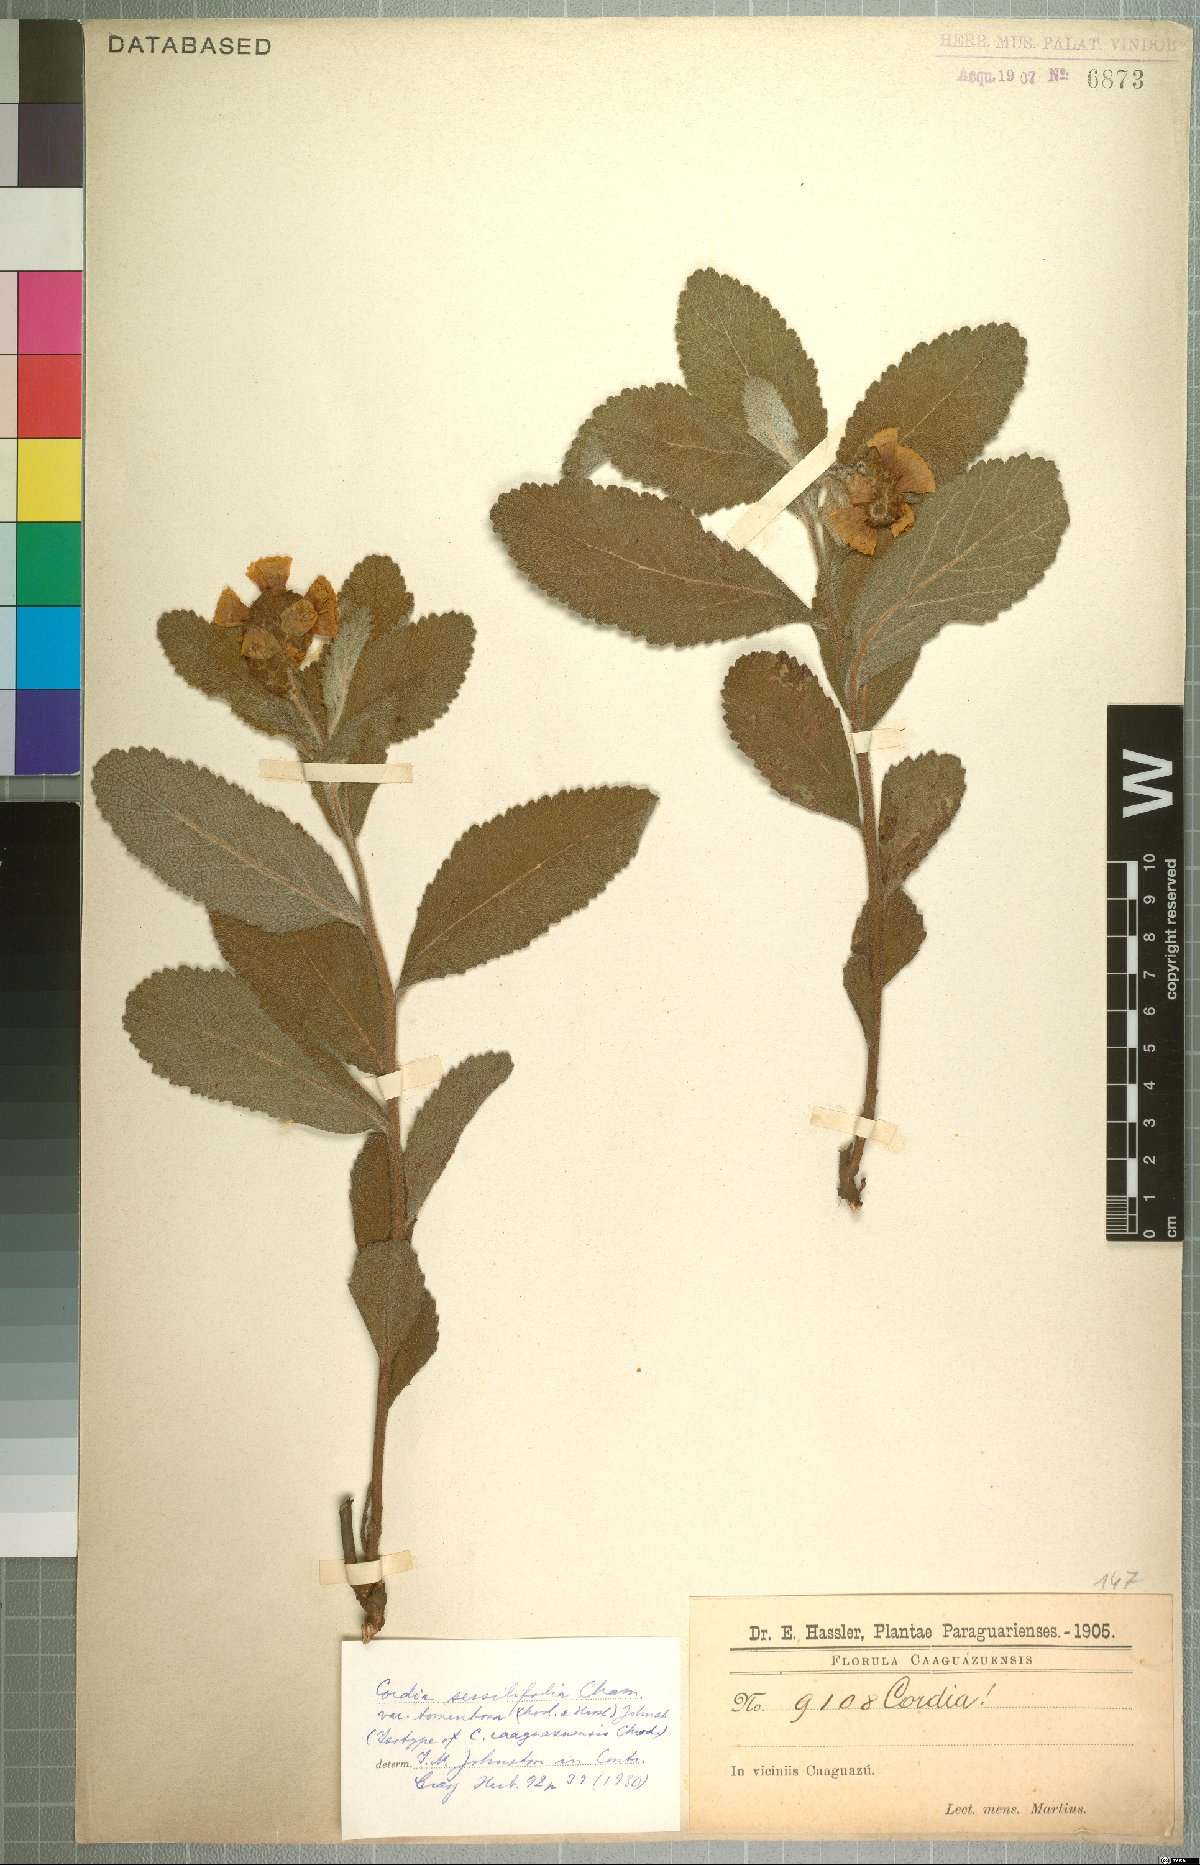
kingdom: Plantae
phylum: Tracheophyta
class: Magnoliopsida
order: Boraginales
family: Cordiaceae
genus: Varronia
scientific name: Varronia sessilifolia
